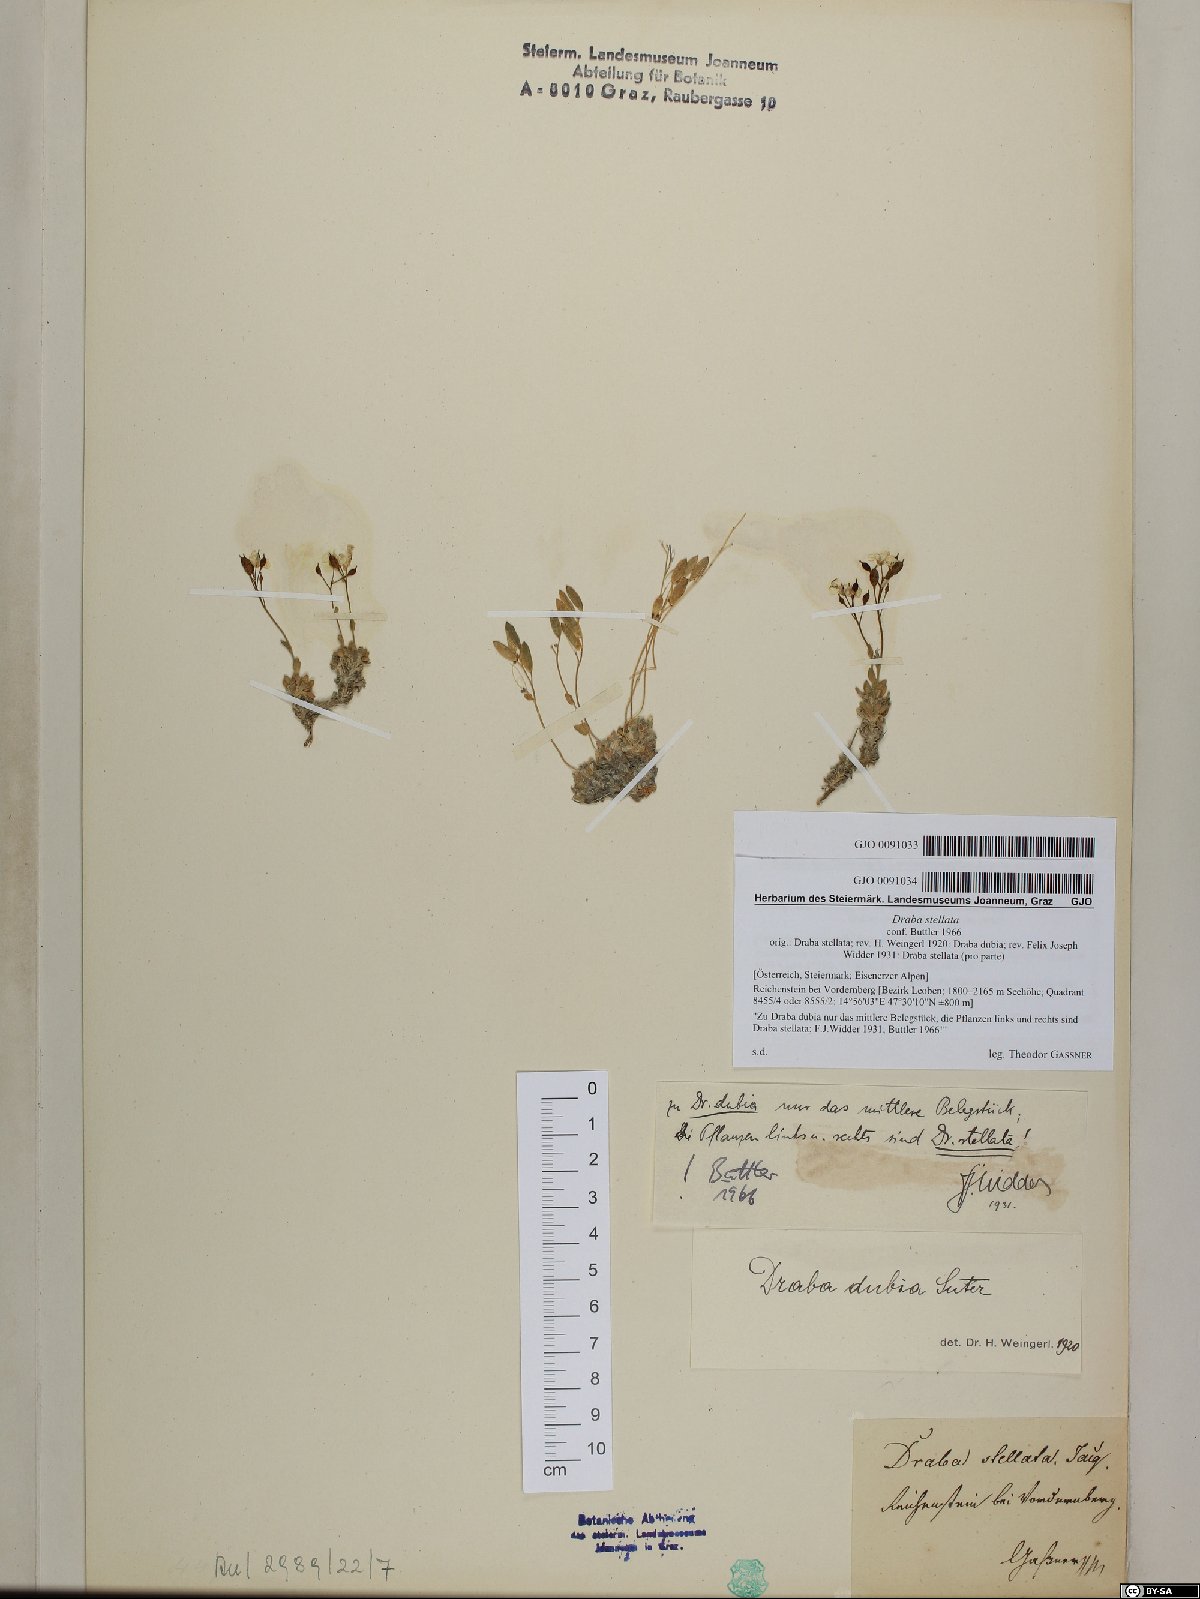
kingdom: Plantae
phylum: Tracheophyta
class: Magnoliopsida
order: Brassicales
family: Brassicaceae
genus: Draba
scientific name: Draba dubia
